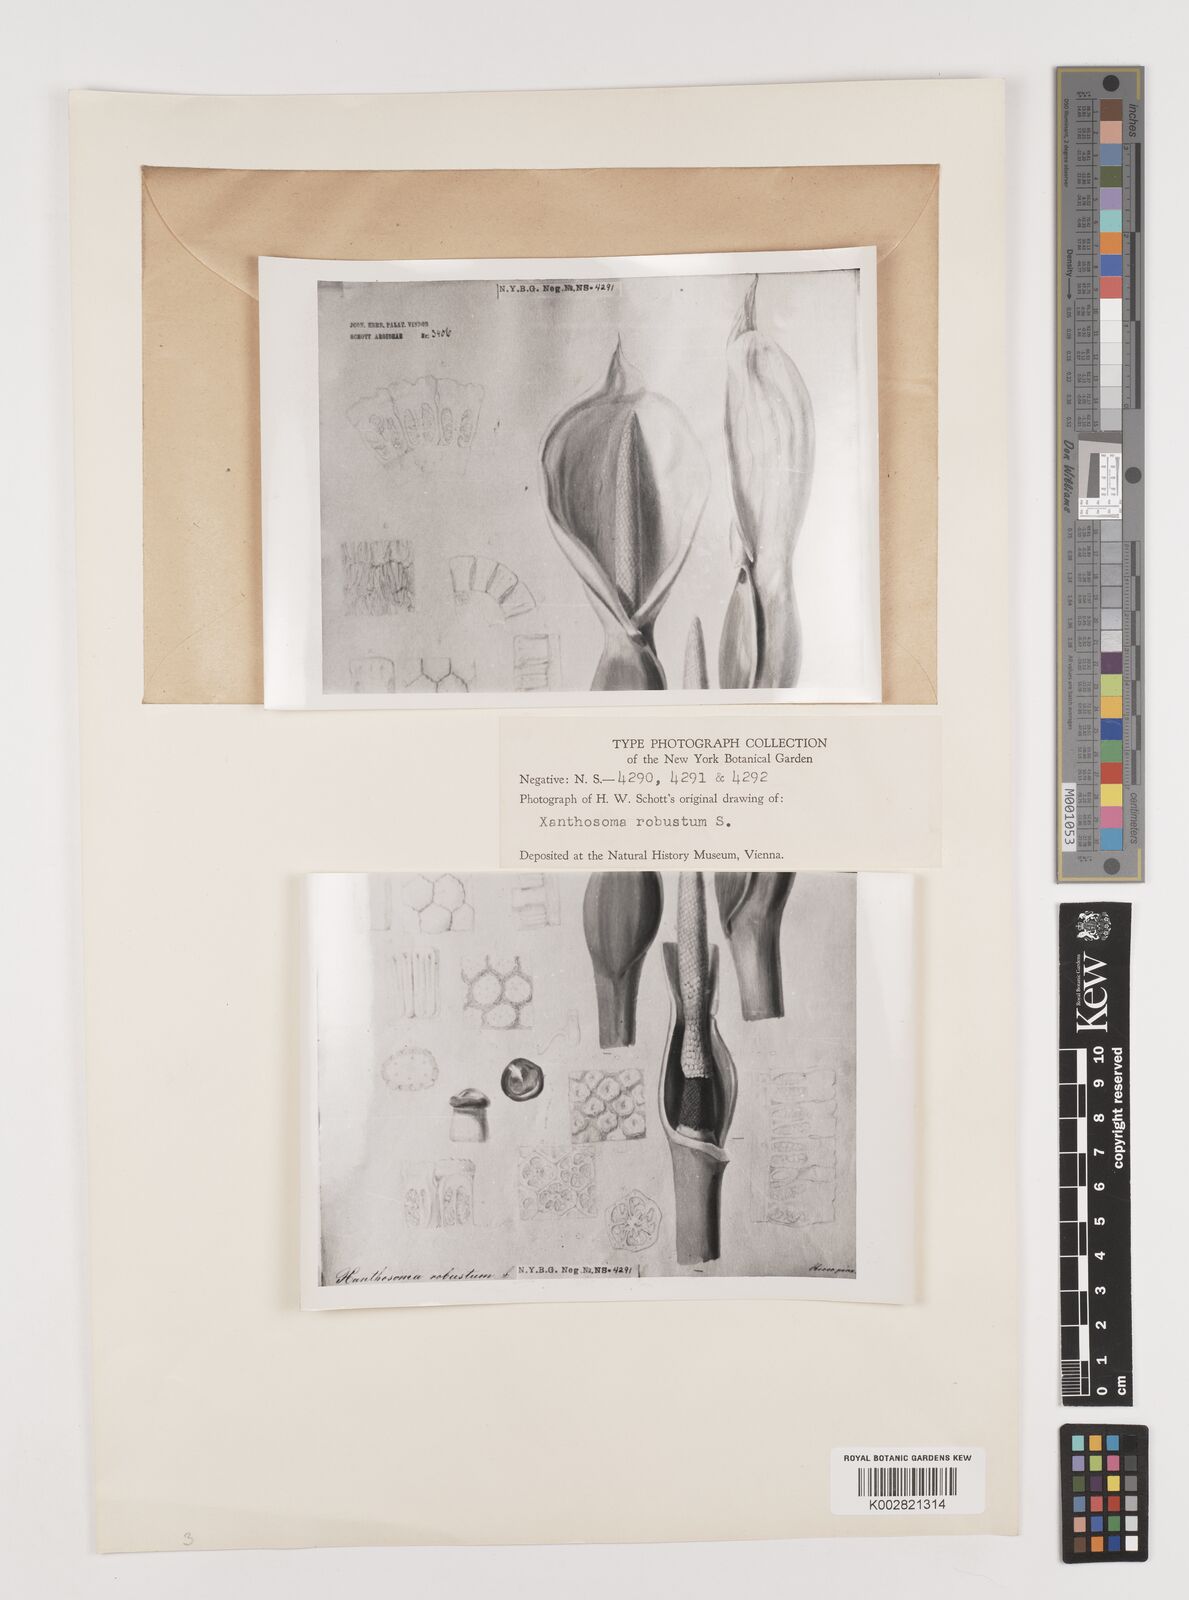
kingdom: Plantae
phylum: Tracheophyta
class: Liliopsida
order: Alismatales
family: Araceae
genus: Xanthosoma
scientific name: Xanthosoma robustum
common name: Capote
